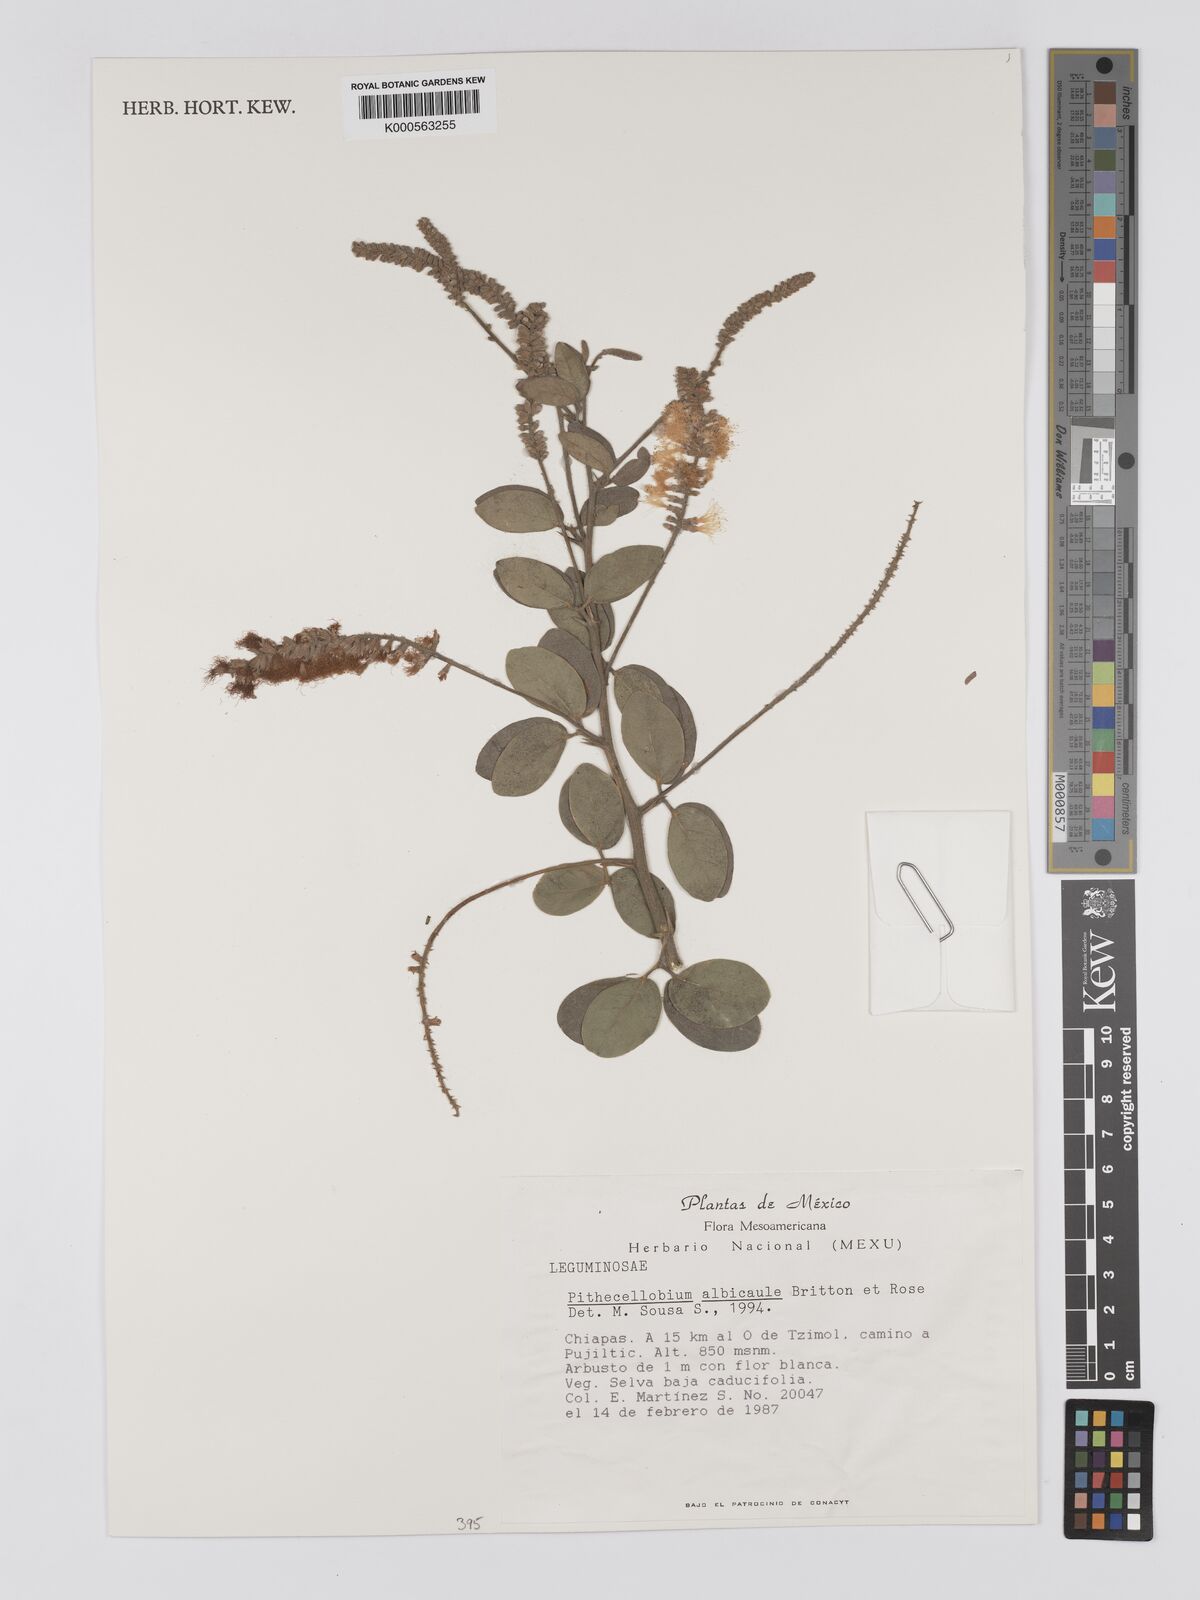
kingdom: Plantae
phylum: Tracheophyta
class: Magnoliopsida
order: Fabales
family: Fabaceae
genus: Pithecellobium
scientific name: Pithecellobium lanceolatum
